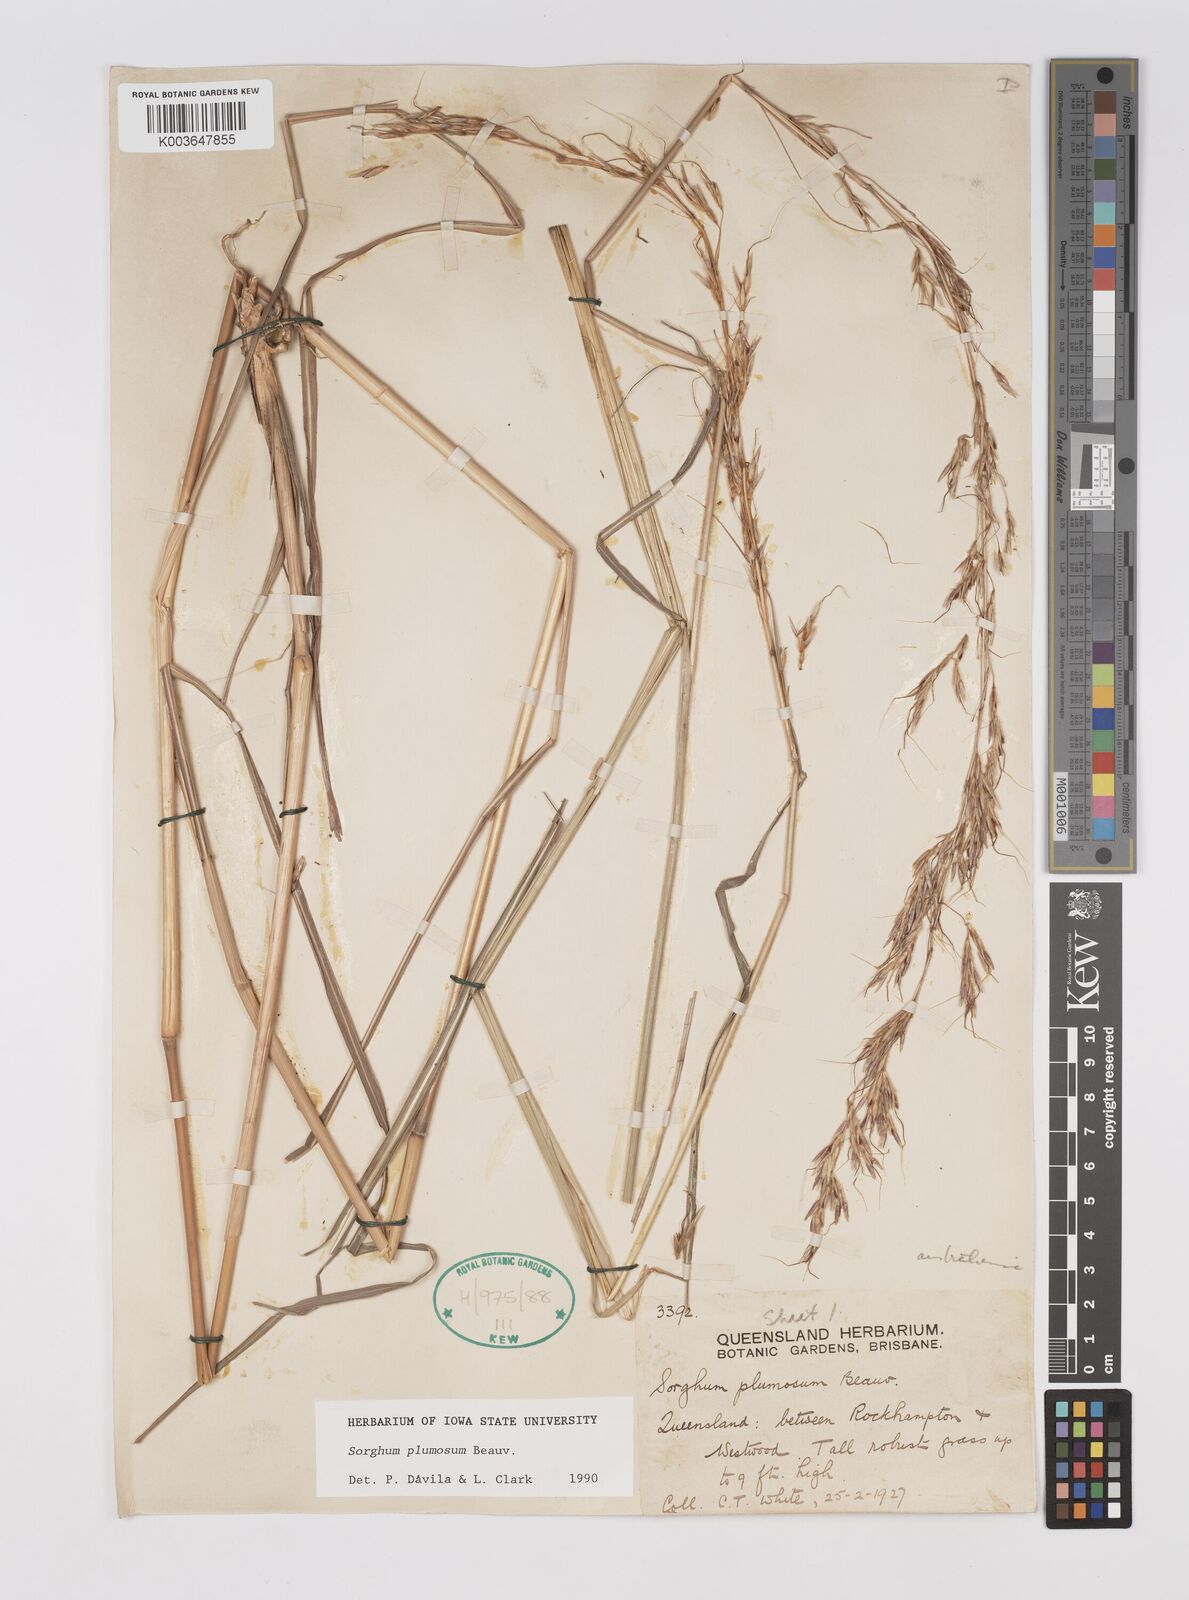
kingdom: Plantae
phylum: Tracheophyta
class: Liliopsida
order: Poales
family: Poaceae
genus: Sarga
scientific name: Sarga plumosa
